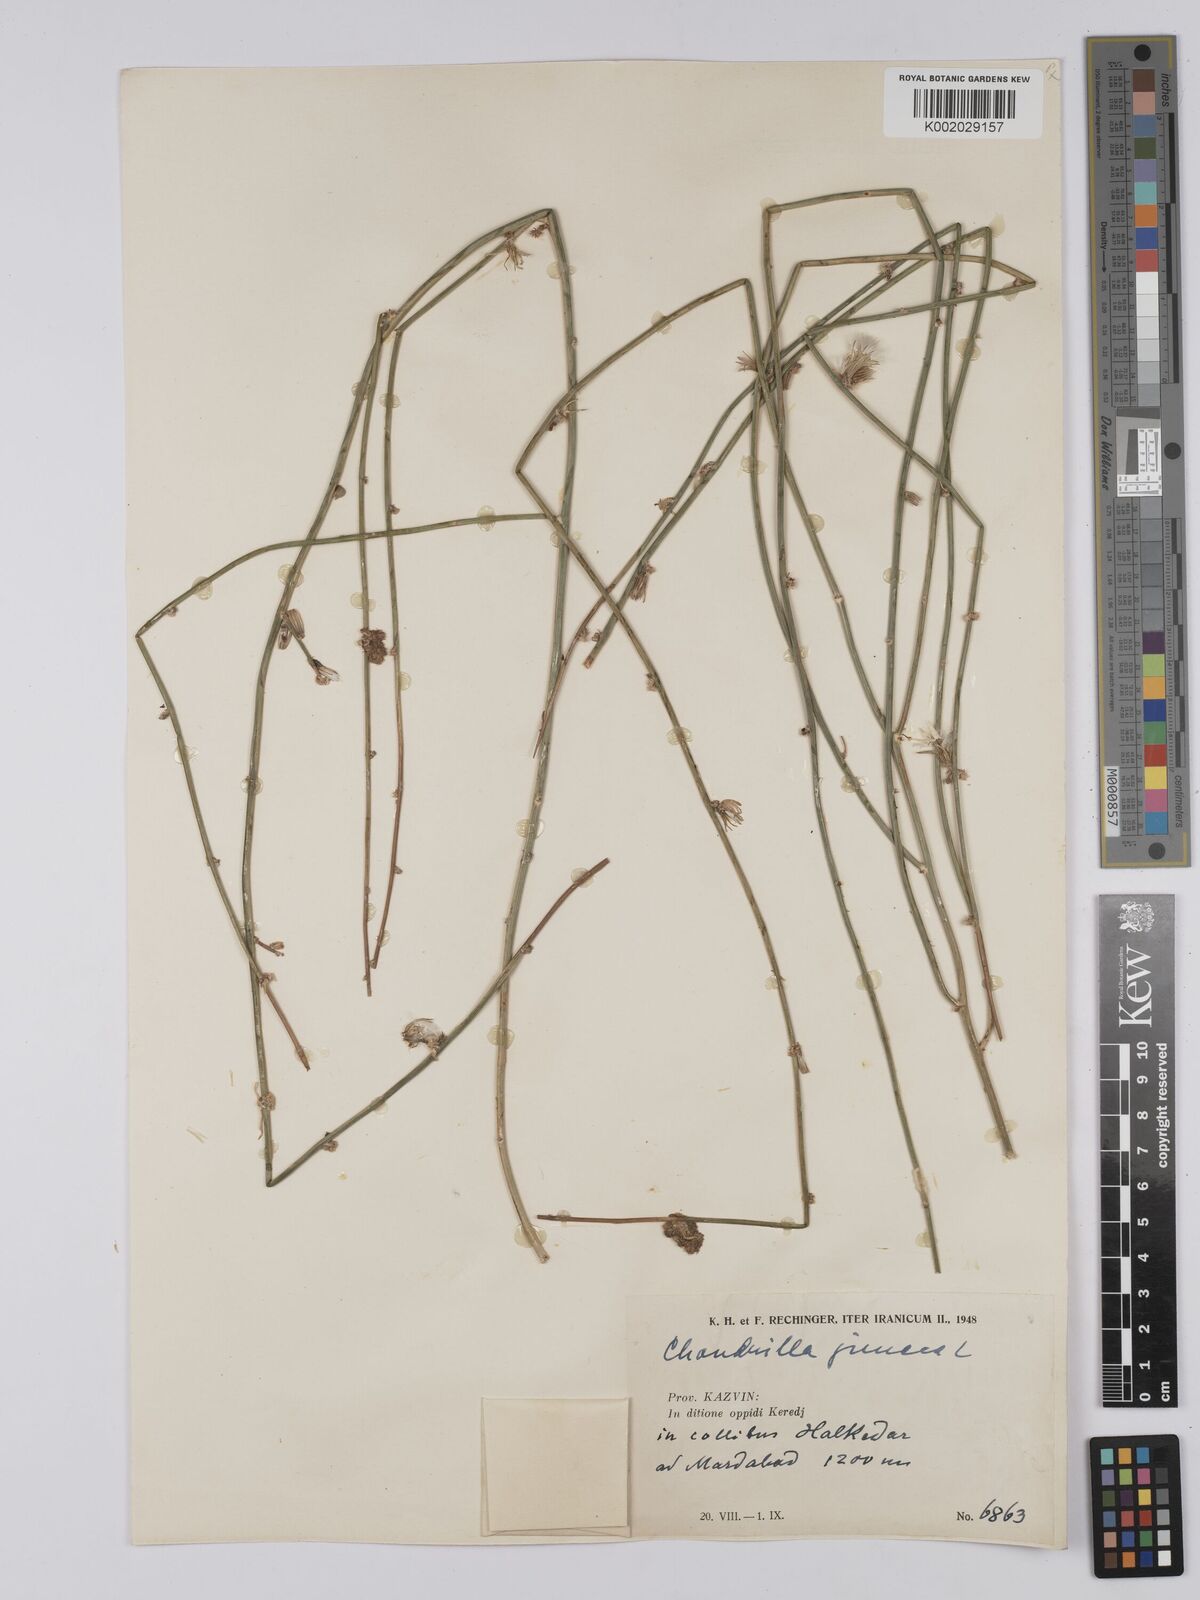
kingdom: Plantae
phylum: Tracheophyta
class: Magnoliopsida
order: Asterales
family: Asteraceae
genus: Chondrilla
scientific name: Chondrilla juncea
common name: Skeleton weed
